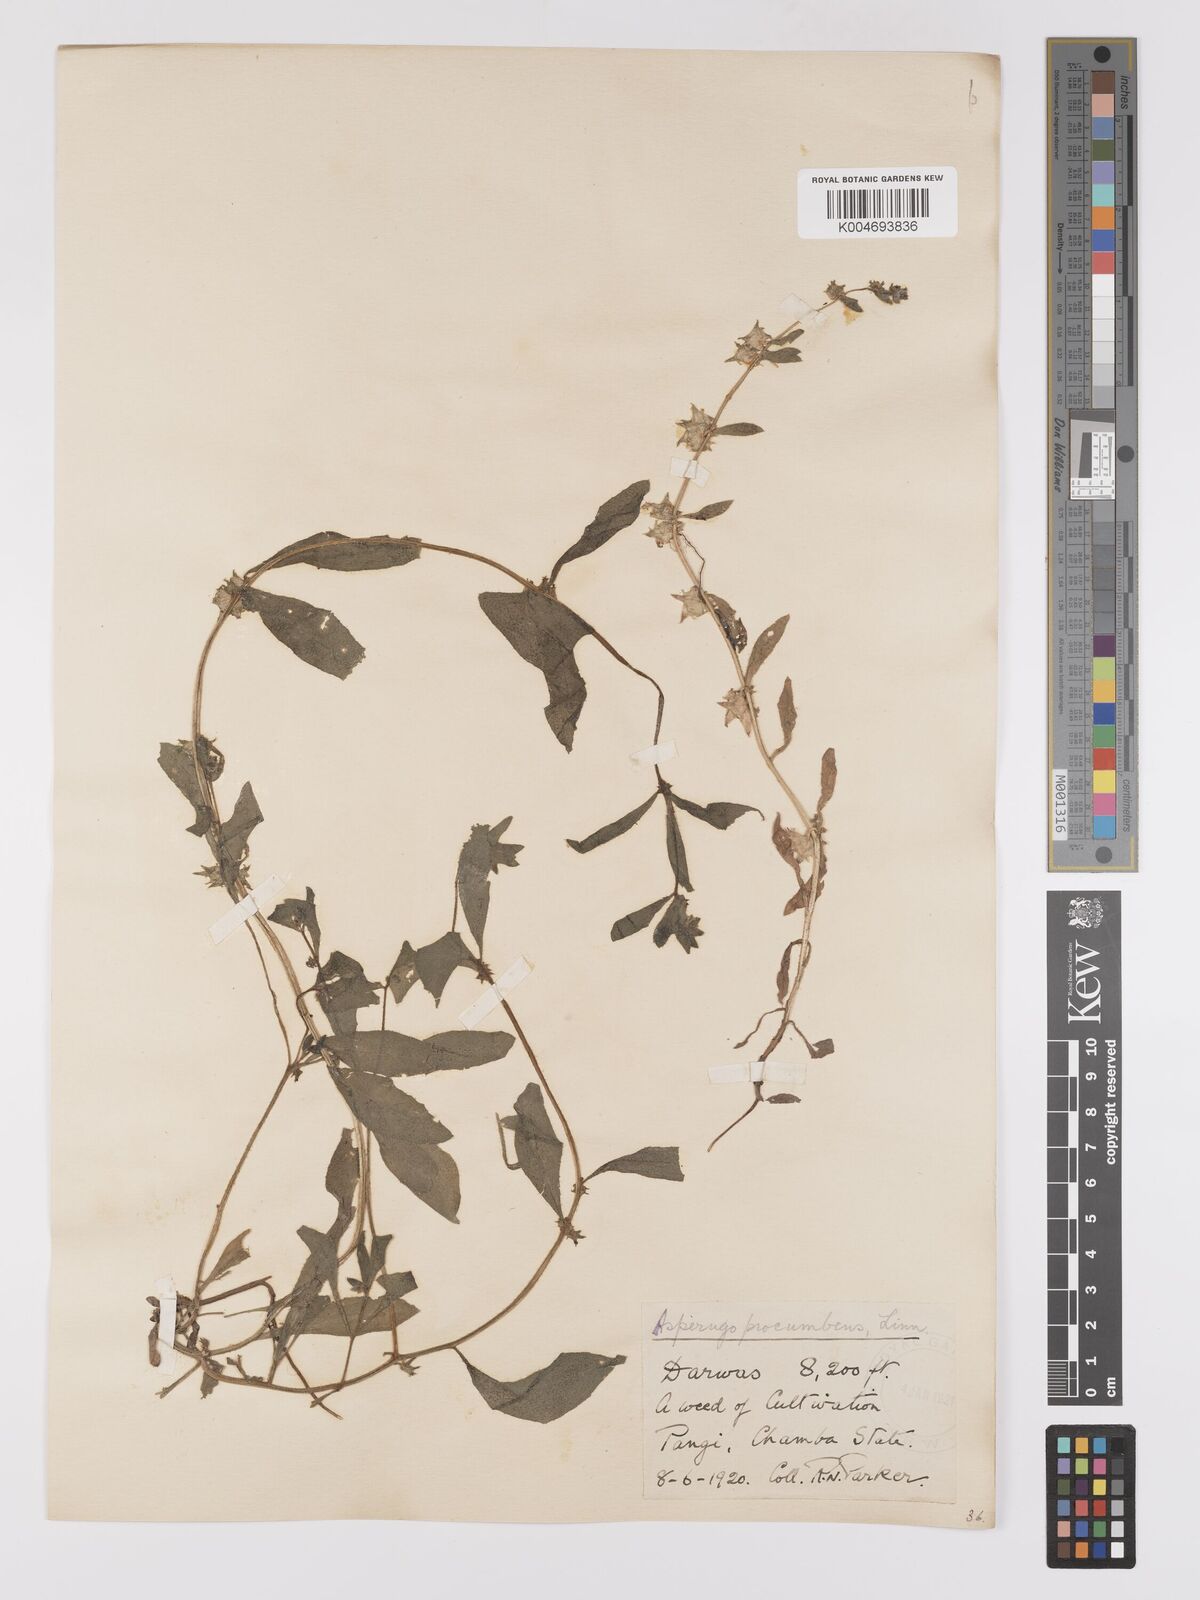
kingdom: Plantae
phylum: Tracheophyta
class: Magnoliopsida
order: Boraginales
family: Boraginaceae
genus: Asperugo
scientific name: Asperugo procumbens
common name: Madwort
